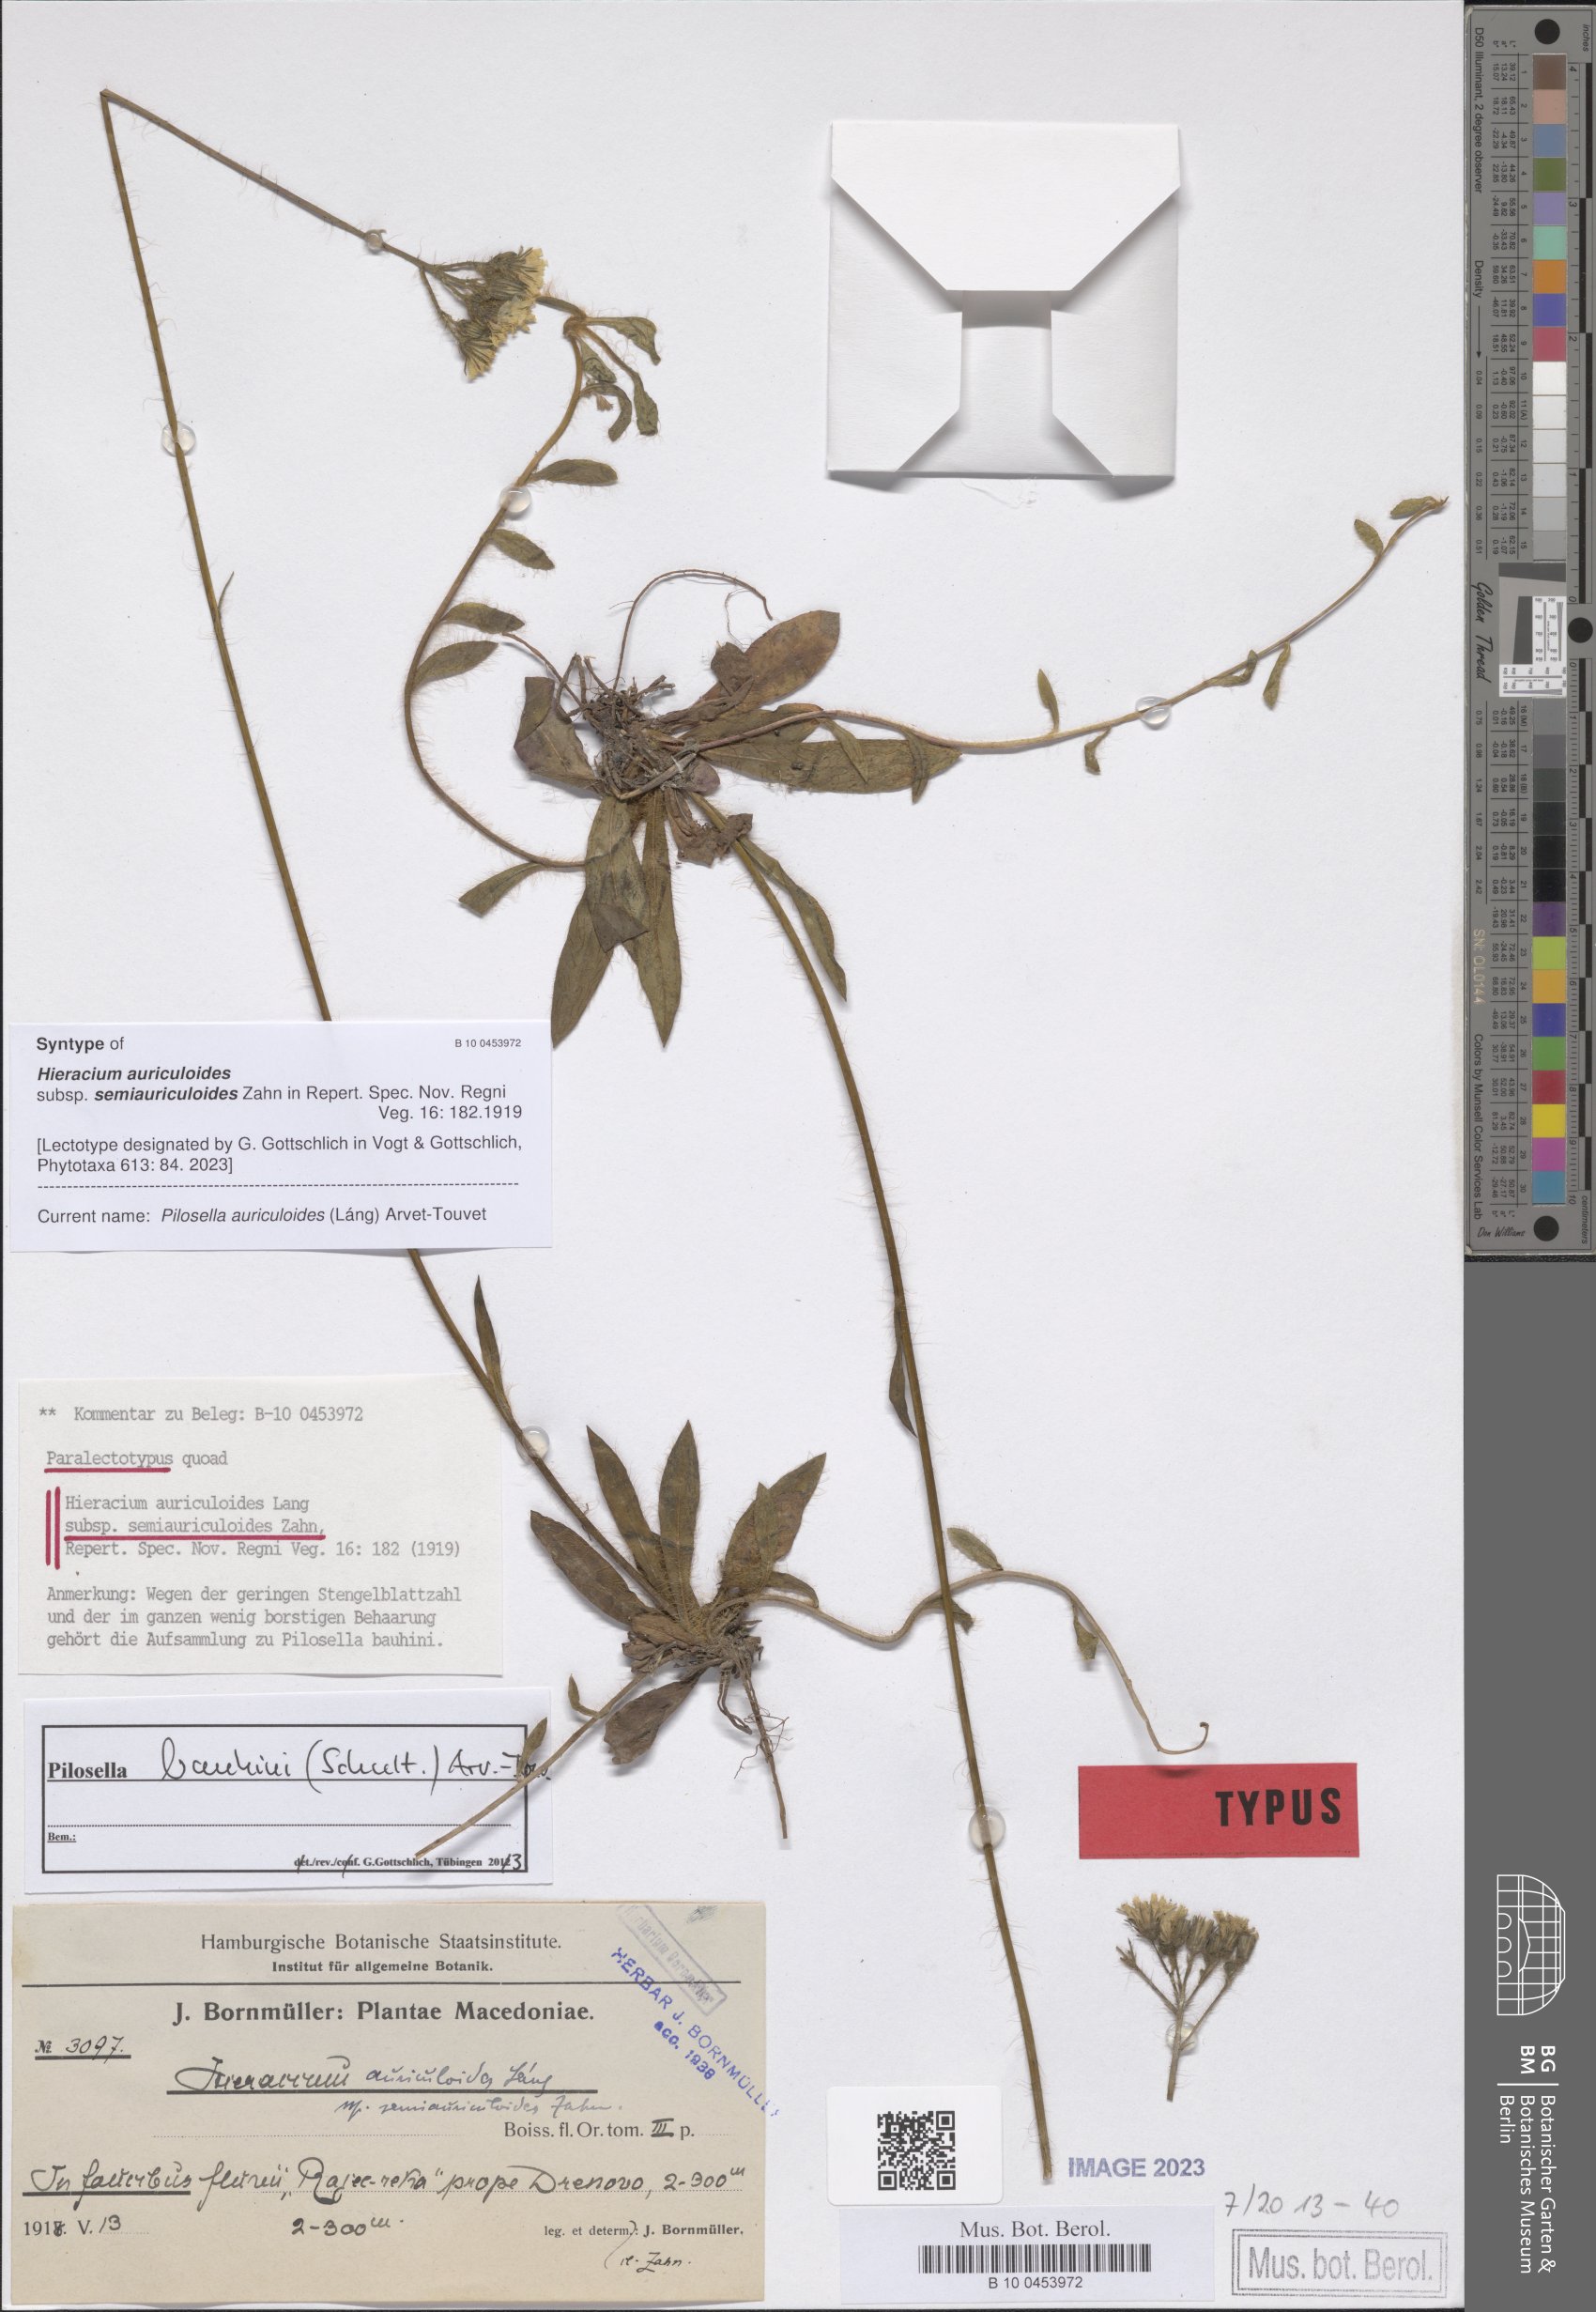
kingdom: Plantae
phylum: Tracheophyta
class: Magnoliopsida
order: Asterales
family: Asteraceae
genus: Pilosella
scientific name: Pilosella auriculoides
